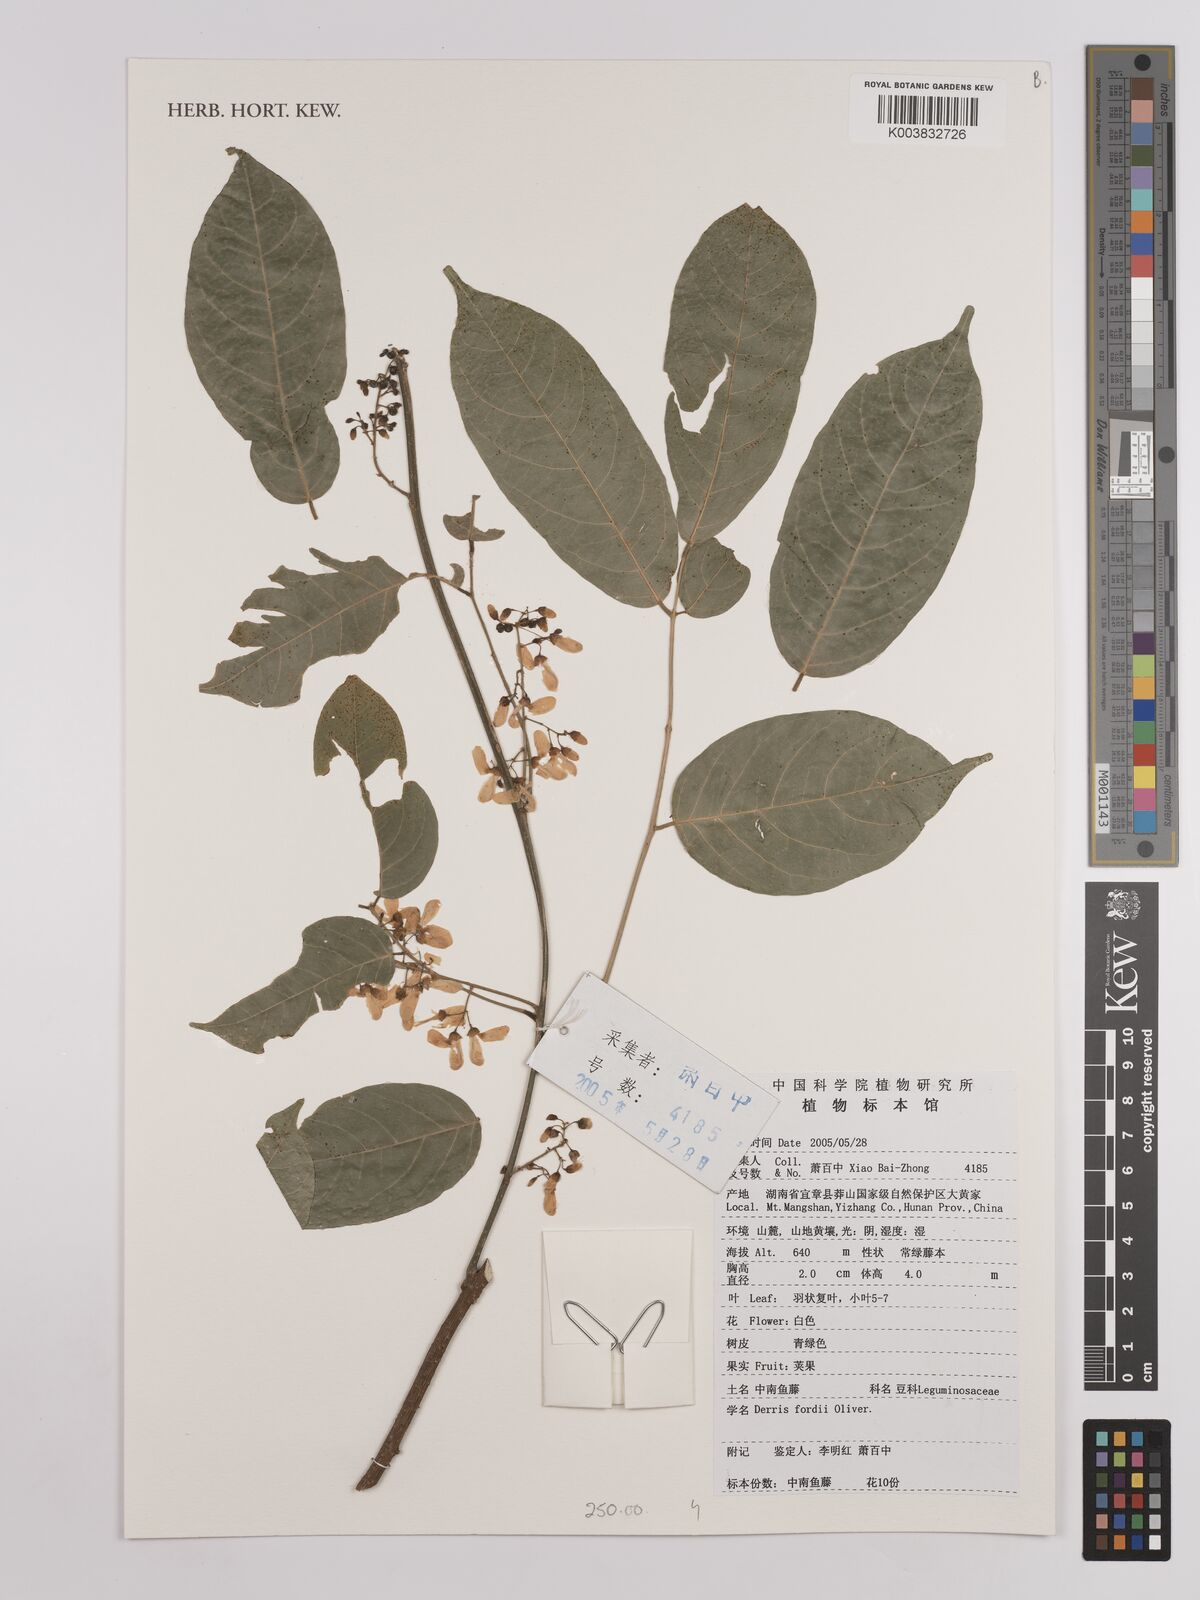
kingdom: Plantae
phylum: Tracheophyta
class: Magnoliopsida
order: Fabales
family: Fabaceae
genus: Derris
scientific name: Derris fordii
